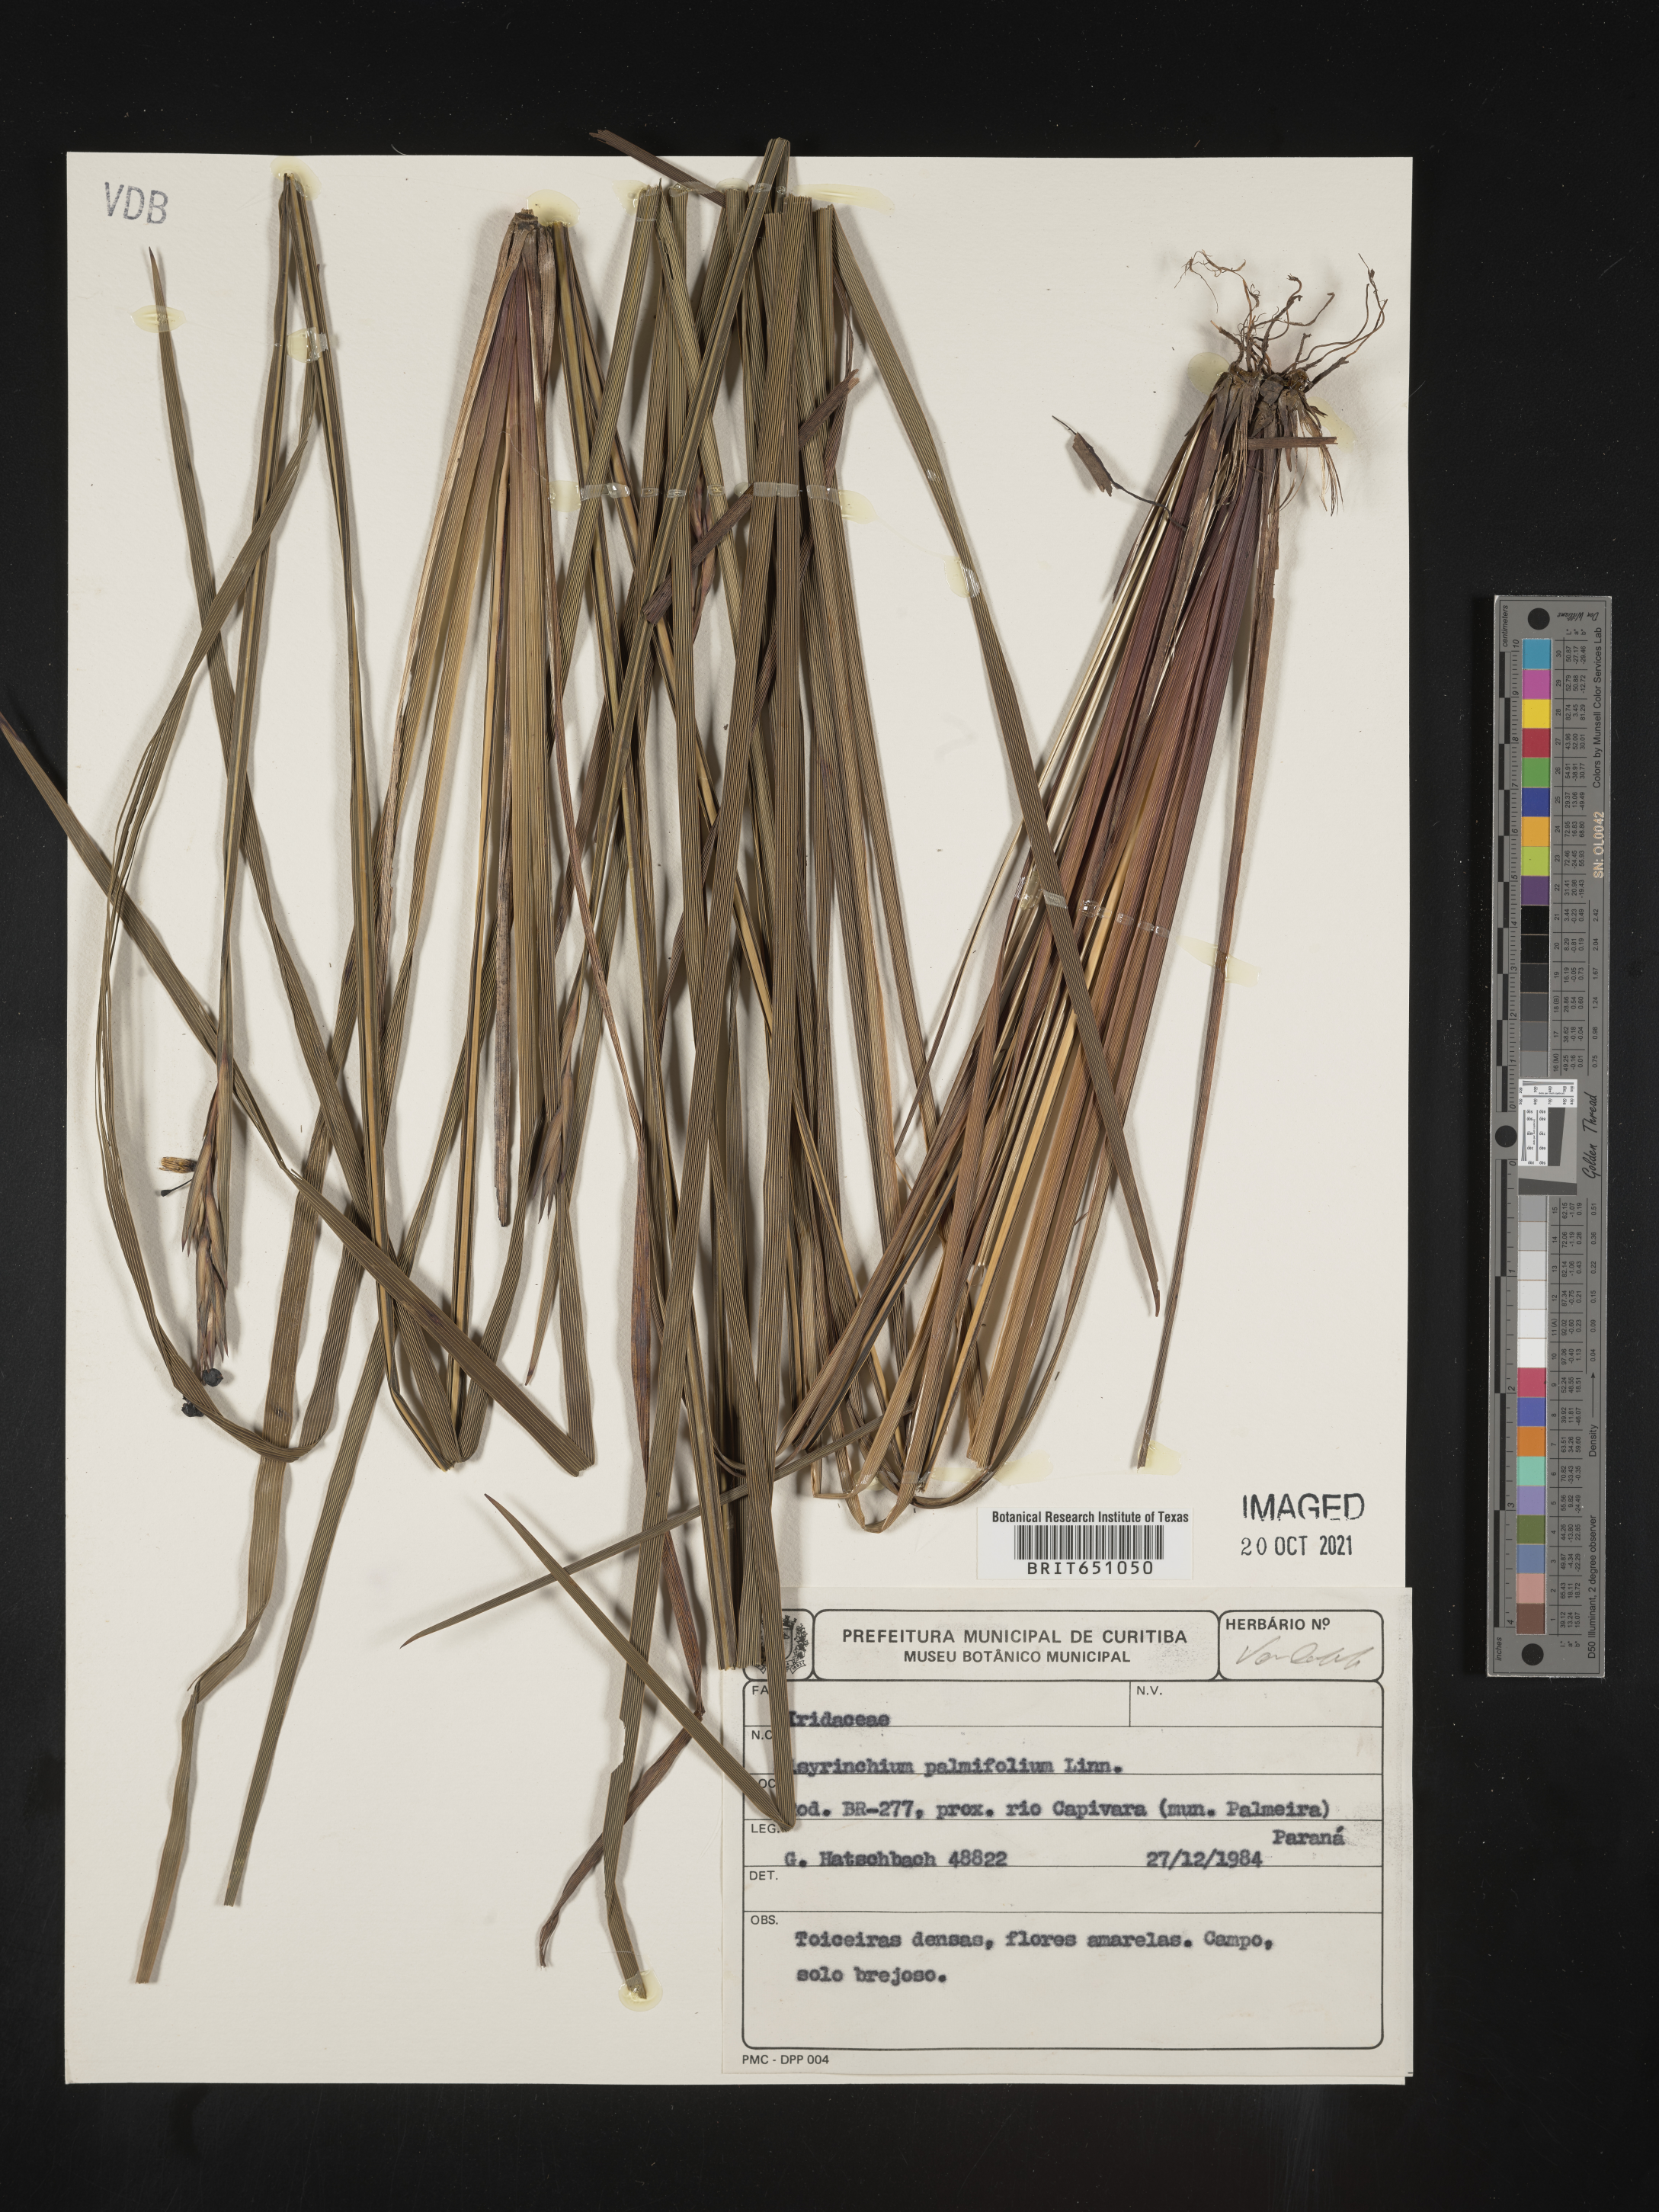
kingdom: Plantae
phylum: Tracheophyta
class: Liliopsida
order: Asparagales
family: Iridaceae
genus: Sisyrinchium
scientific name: Sisyrinchium
